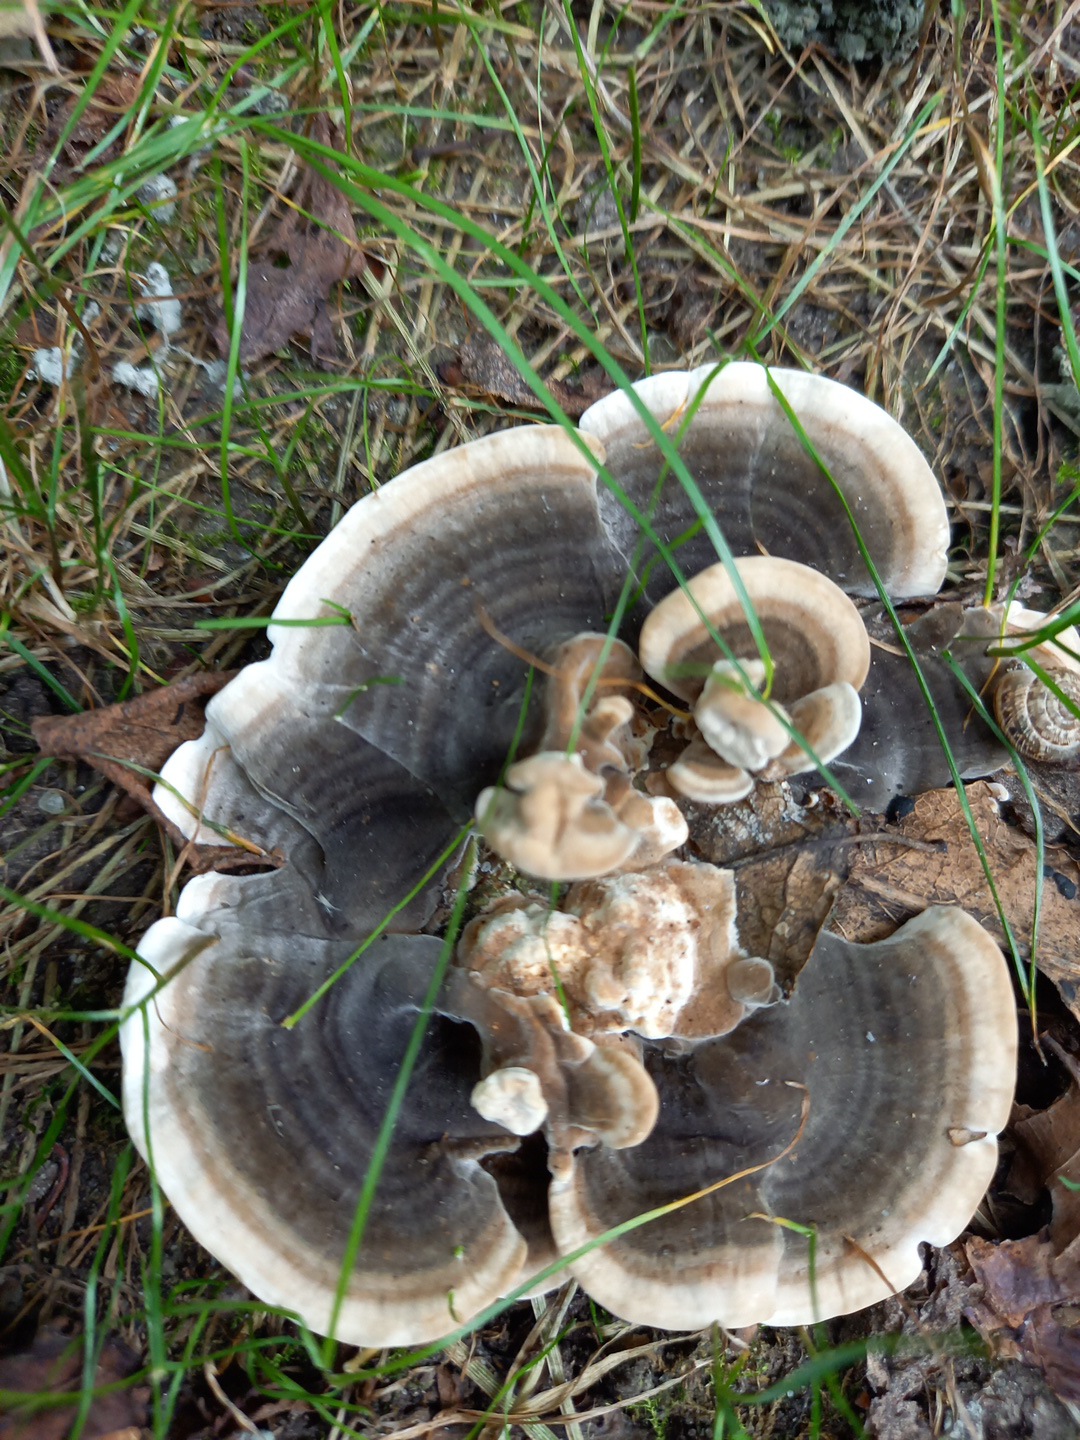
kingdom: Fungi
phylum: Basidiomycota
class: Agaricomycetes
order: Polyporales
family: Polyporaceae
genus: Trametes
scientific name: Trametes versicolor
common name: broget læderporesvamp
